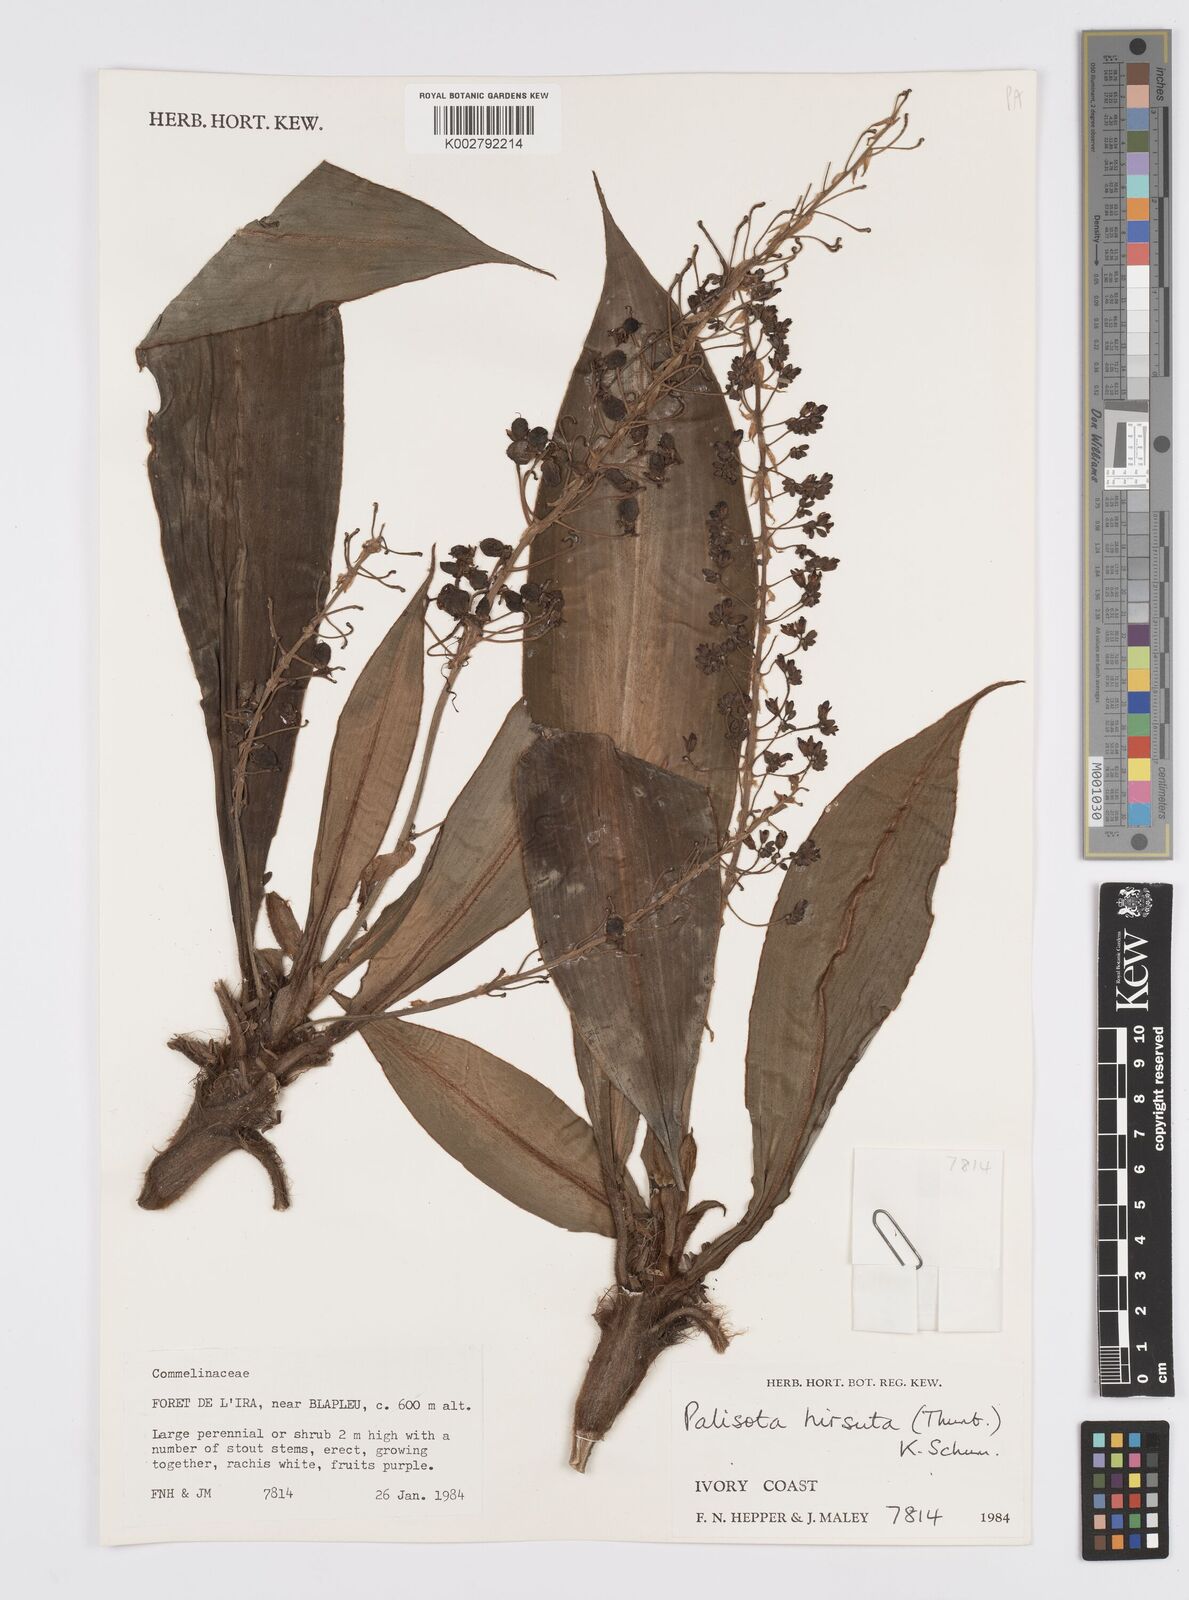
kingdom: Plantae
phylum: Tracheophyta
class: Liliopsida
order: Commelinales
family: Commelinaceae
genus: Palisota
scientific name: Palisota hirsuta
